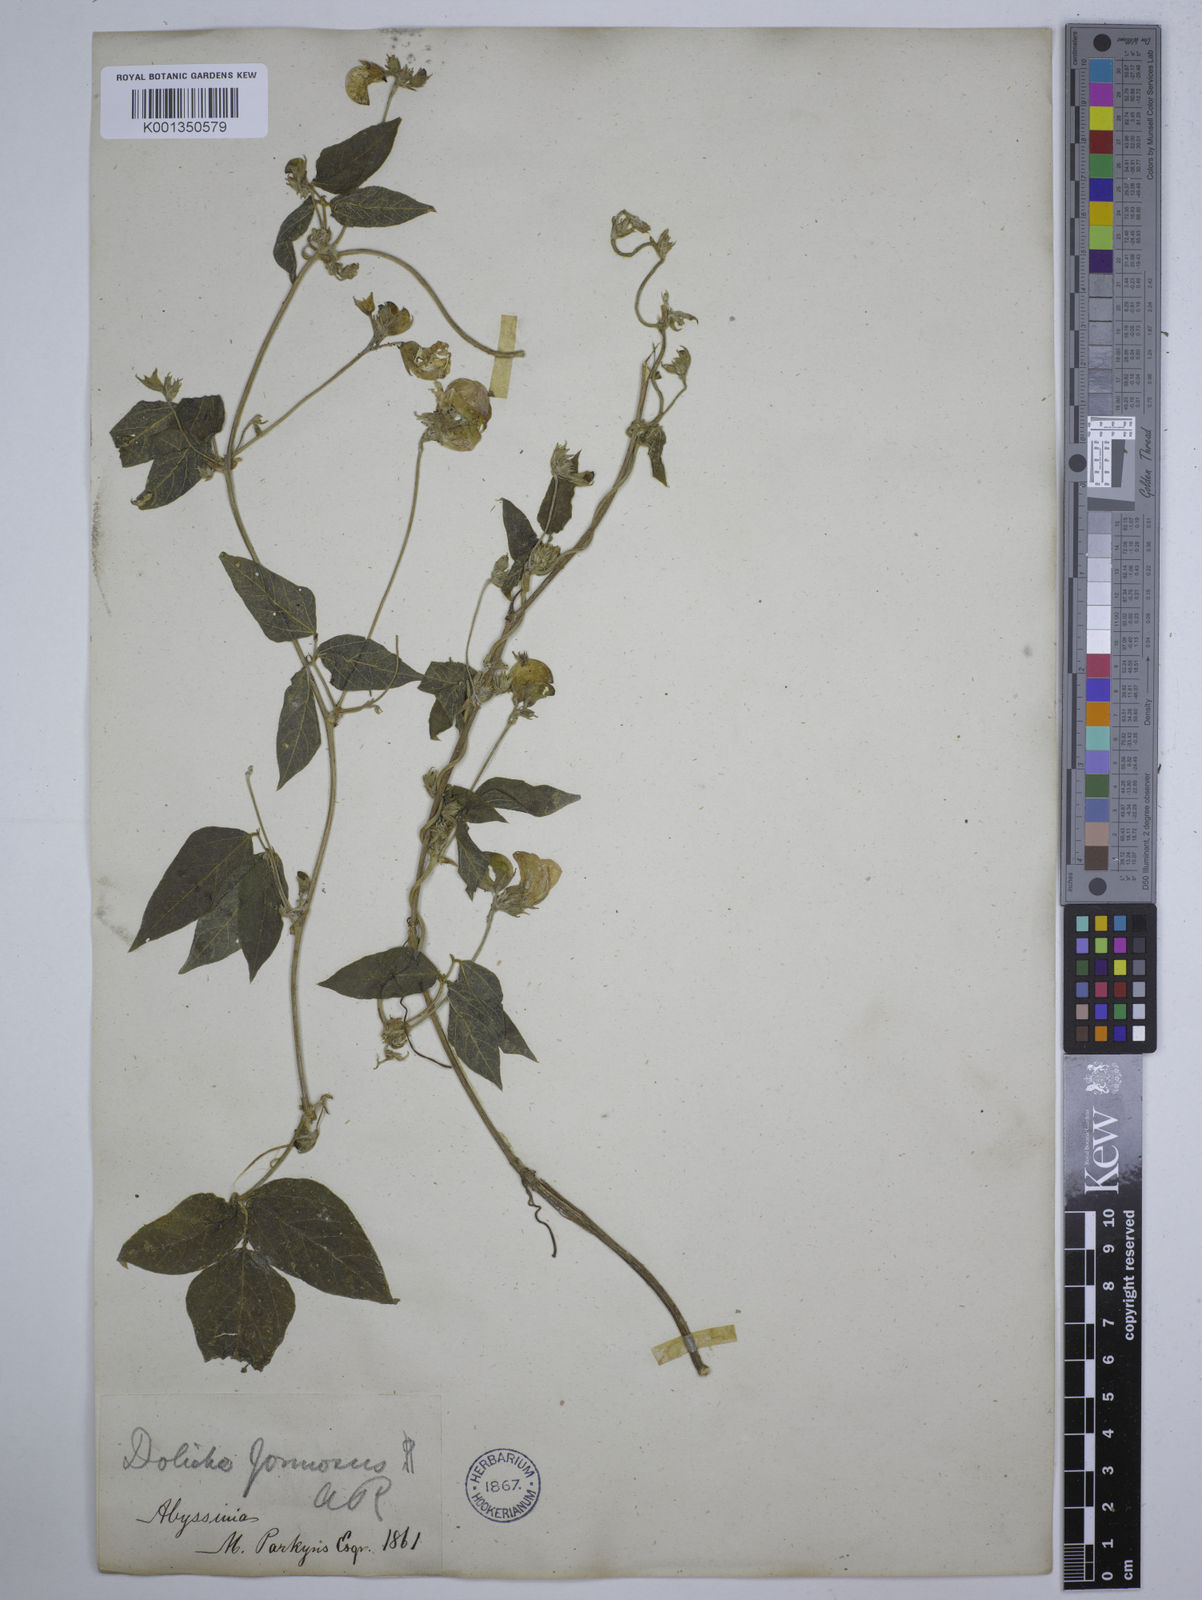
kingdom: Plantae
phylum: Tracheophyta
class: Magnoliopsida
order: Fabales
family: Fabaceae
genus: Dolichos
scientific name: Dolichos
